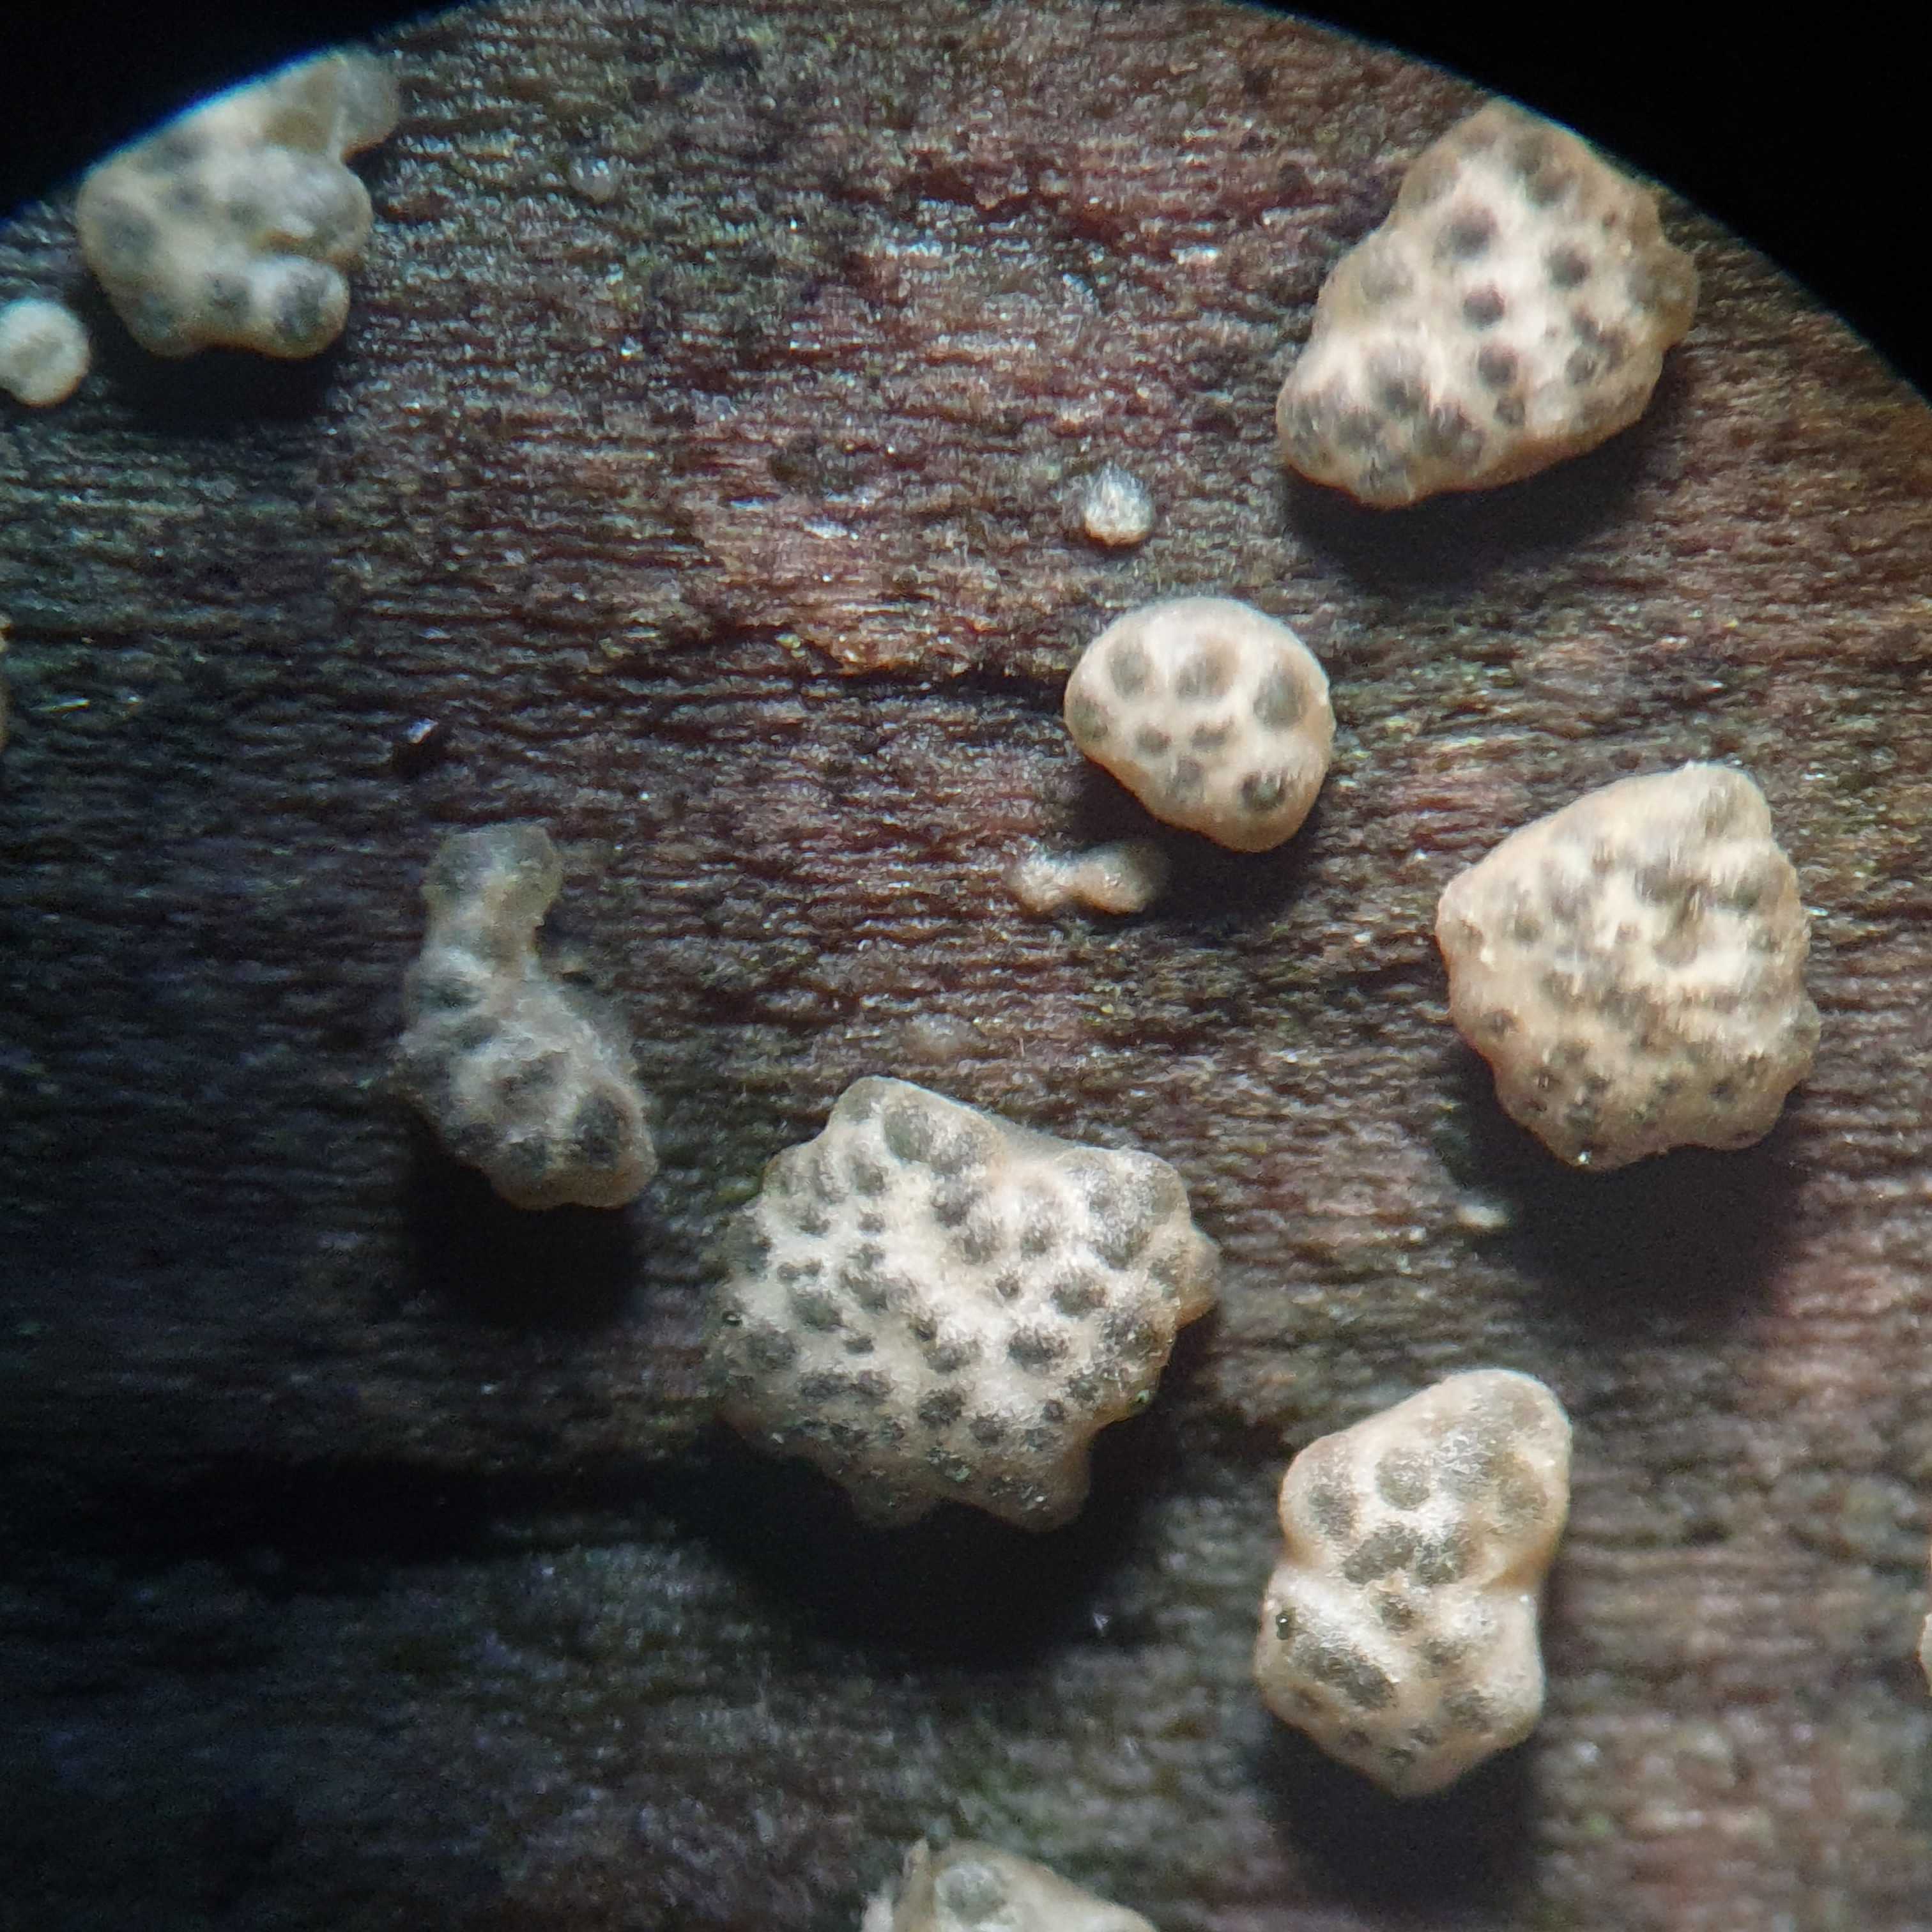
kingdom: Fungi
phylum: Ascomycota
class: Sordariomycetes
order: Hypocreales
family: Hypocreaceae
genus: Trichoderma
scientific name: Trichoderma strictipile
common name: grønprikket kødkerne
